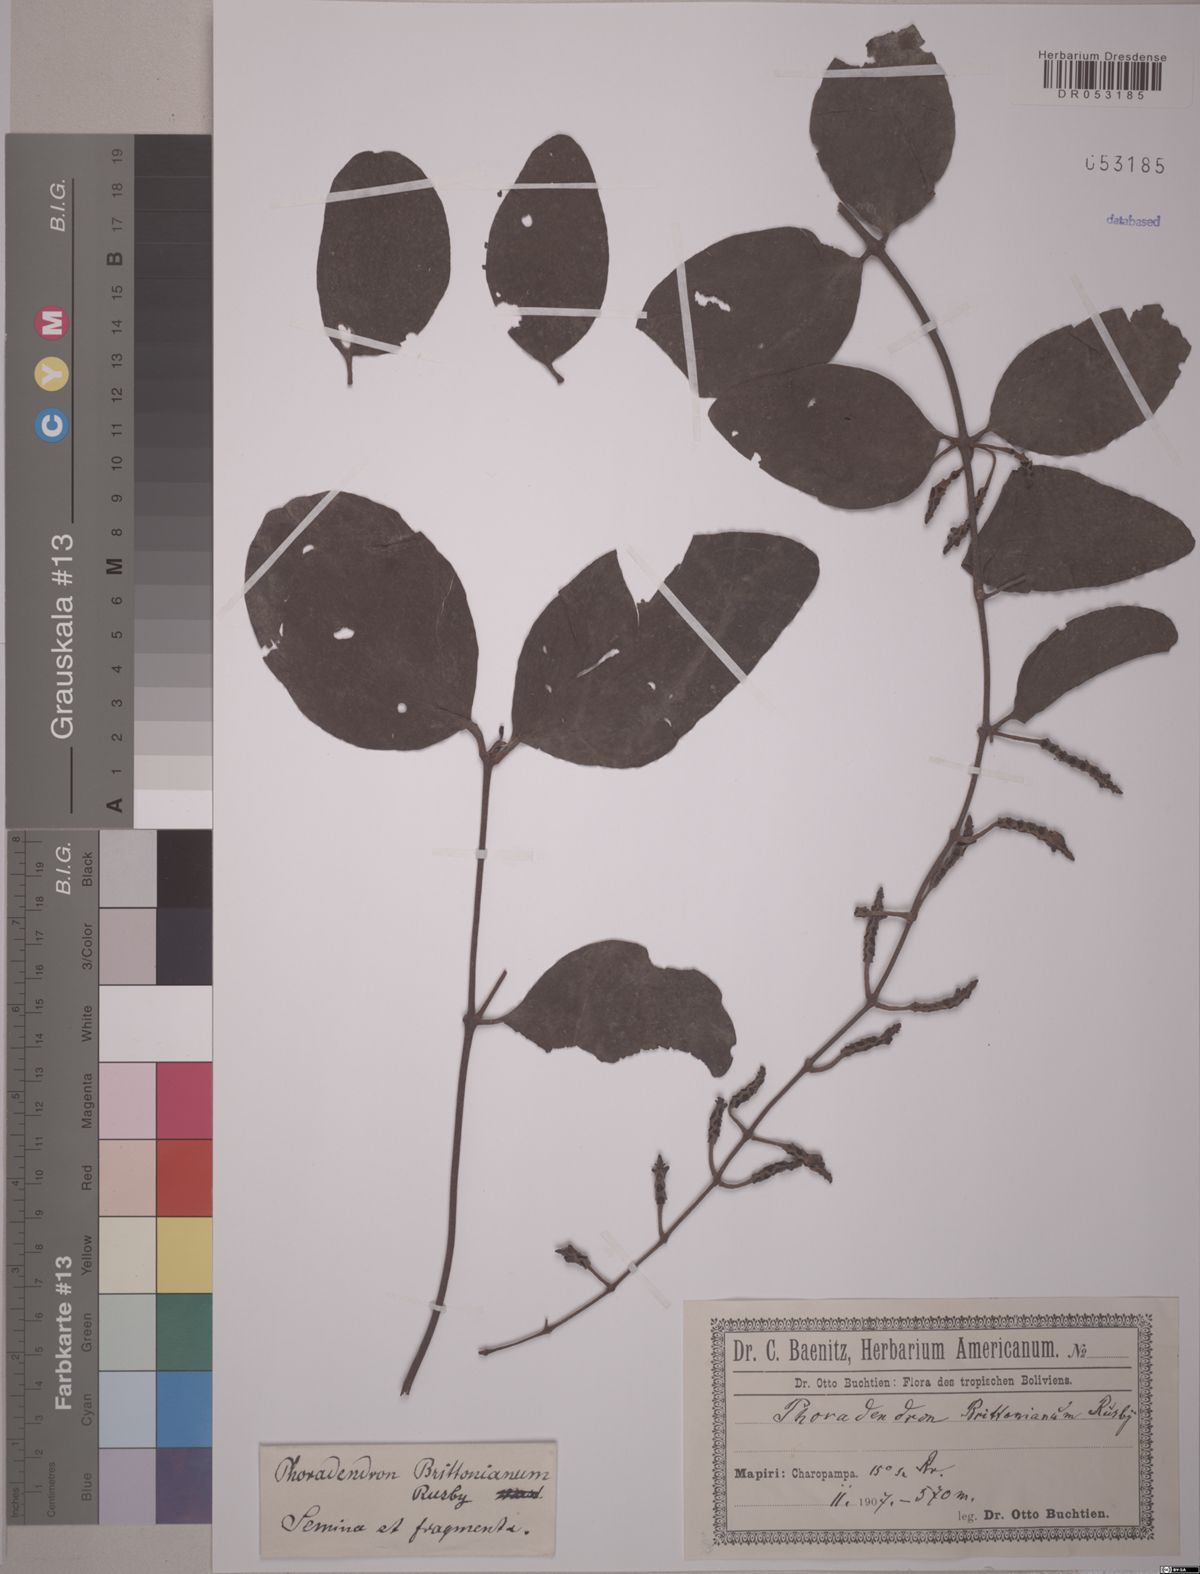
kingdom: Plantae
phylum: Tracheophyta
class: Magnoliopsida
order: Santalales
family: Viscaceae
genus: Phoradendron
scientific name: Phoradendron brittonianum
